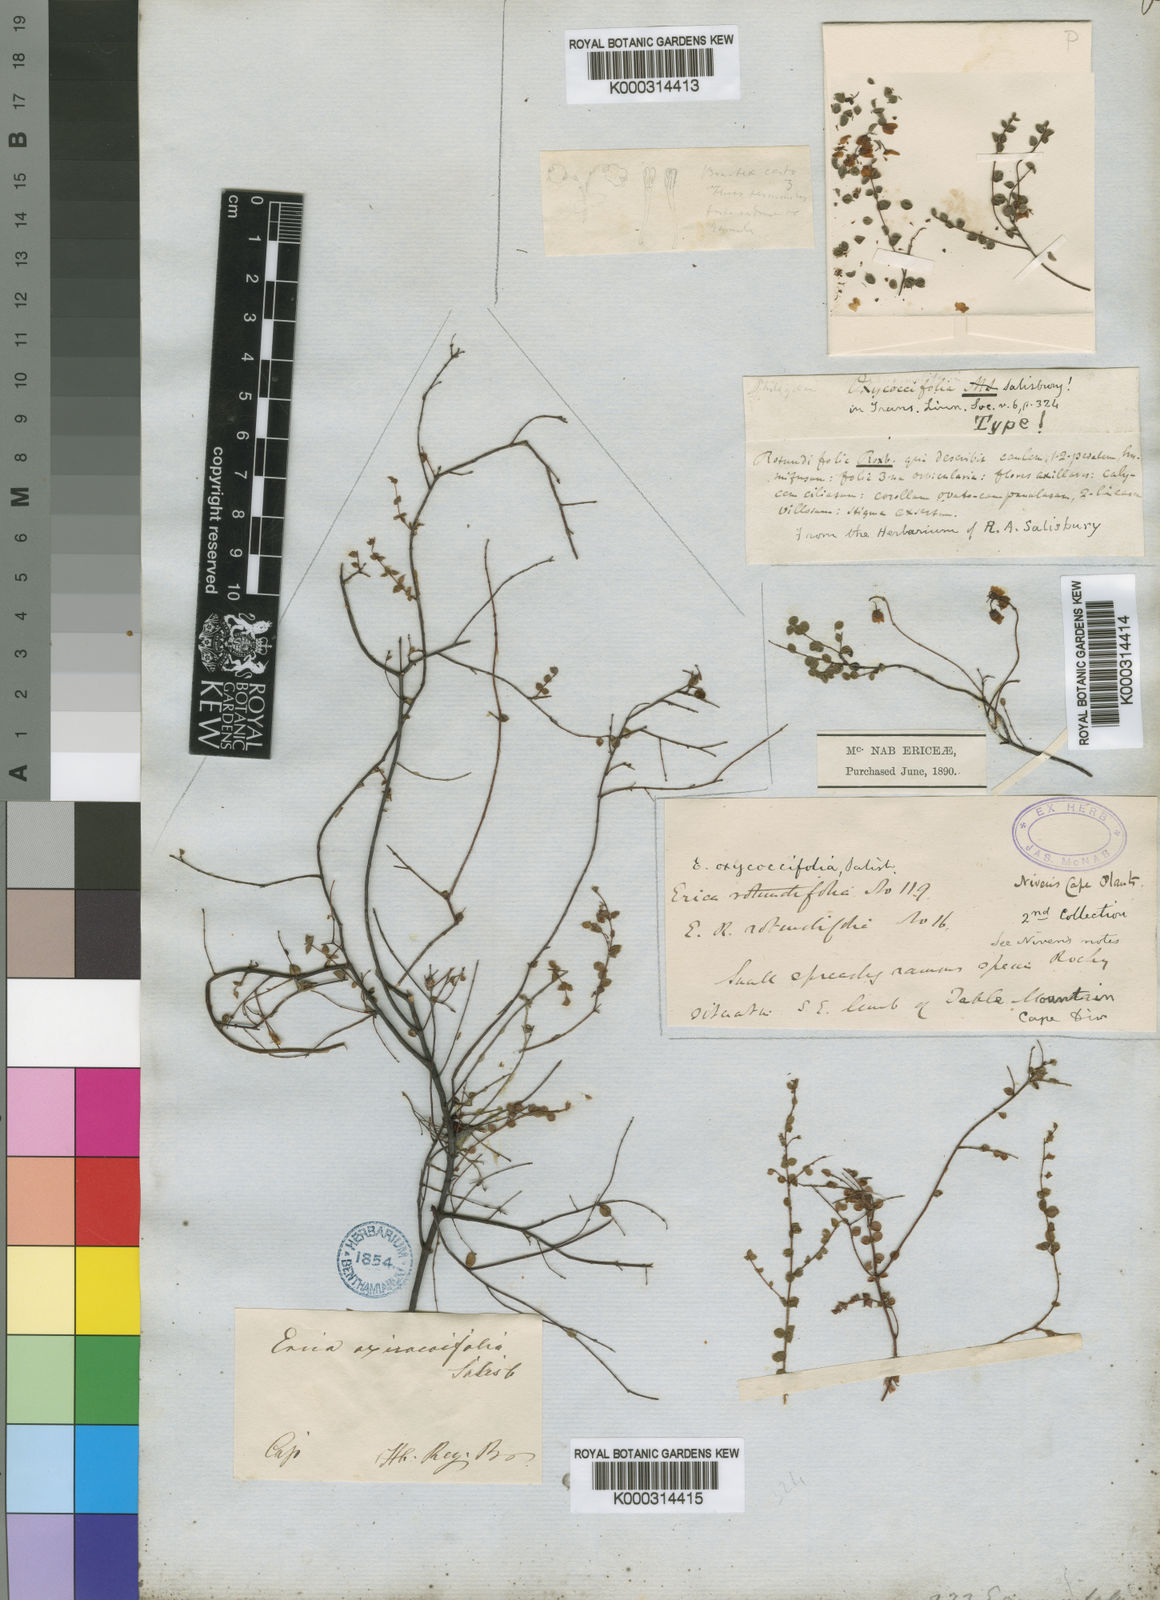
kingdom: Plantae
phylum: Tracheophyta
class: Magnoliopsida
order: Ericales
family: Ericaceae
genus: Erica
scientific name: Erica oxycoccifolia
